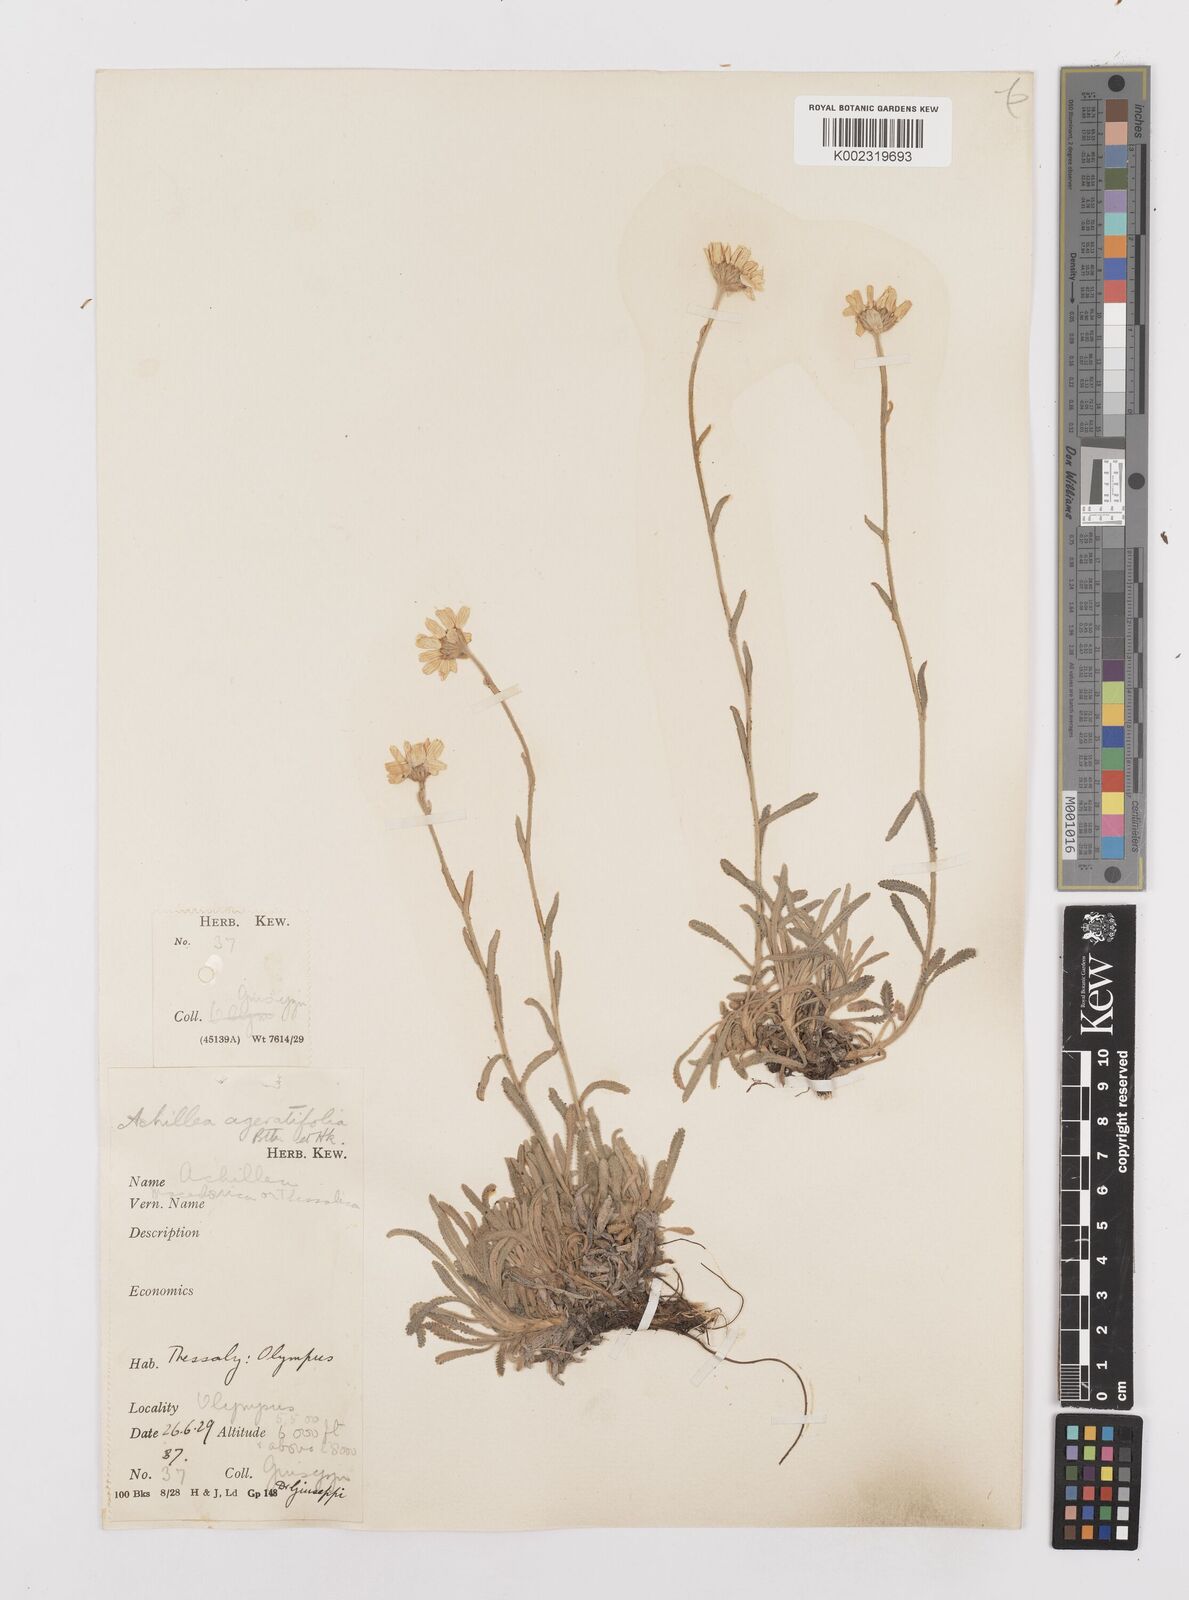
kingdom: Plantae
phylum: Tracheophyta
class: Magnoliopsida
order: Asterales
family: Asteraceae
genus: Achillea
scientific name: Achillea ageratifolia
